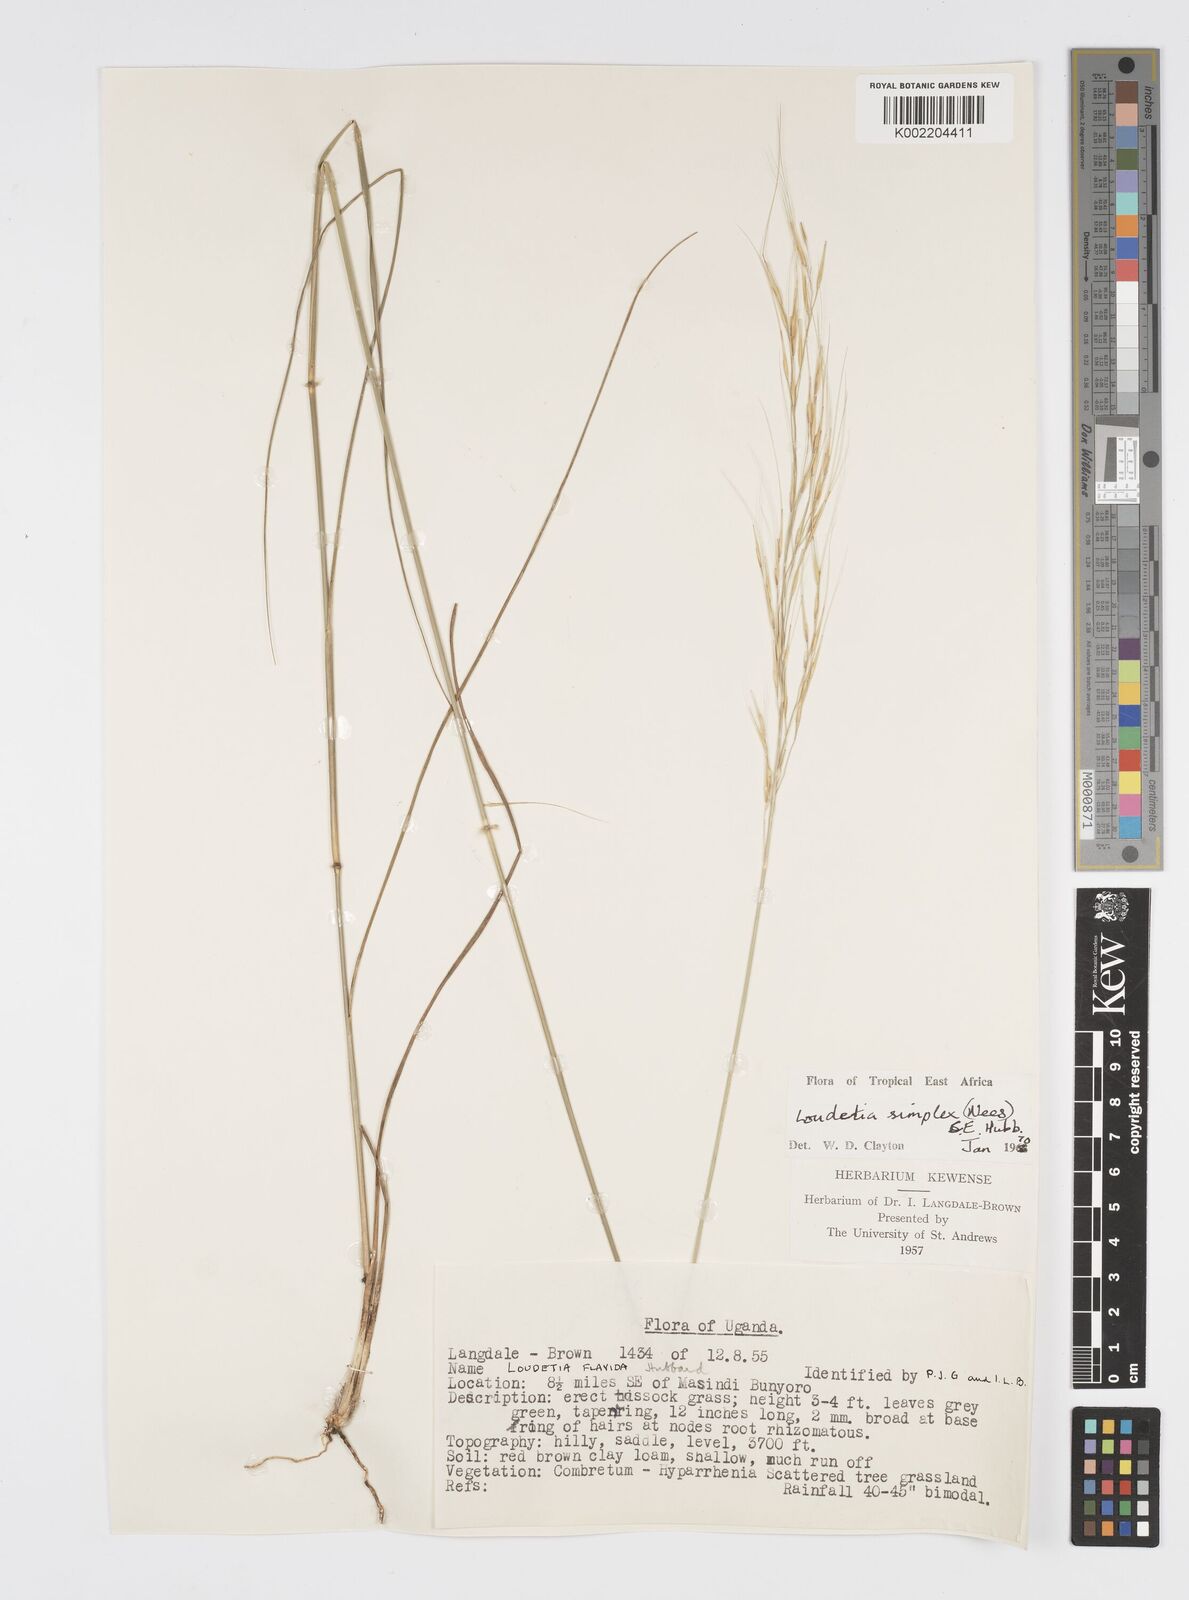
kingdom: Plantae
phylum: Tracheophyta
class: Liliopsida
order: Poales
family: Poaceae
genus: Loudetia
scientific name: Loudetia simplex
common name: Common russet grass
